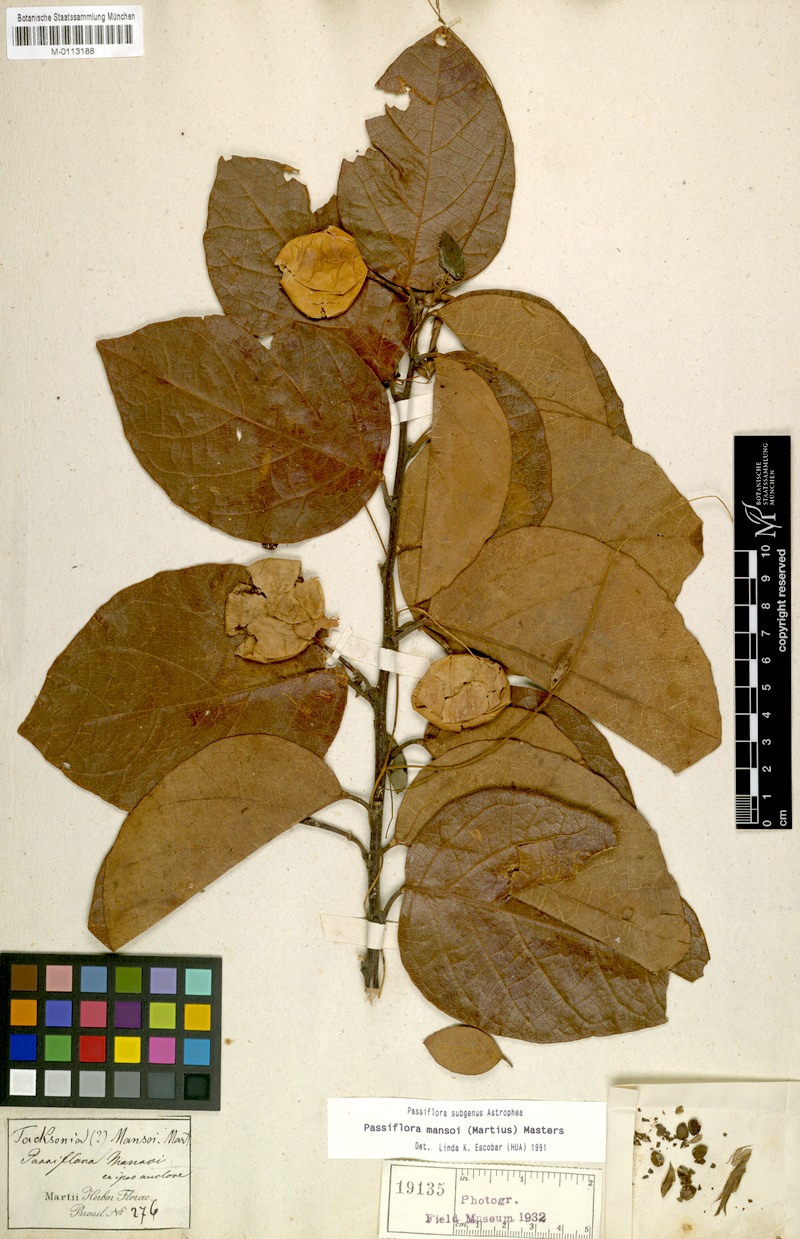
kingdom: Plantae
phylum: Tracheophyta
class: Magnoliopsida
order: Malpighiales
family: Passifloraceae
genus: Passiflora
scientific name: Passiflora mansoi
